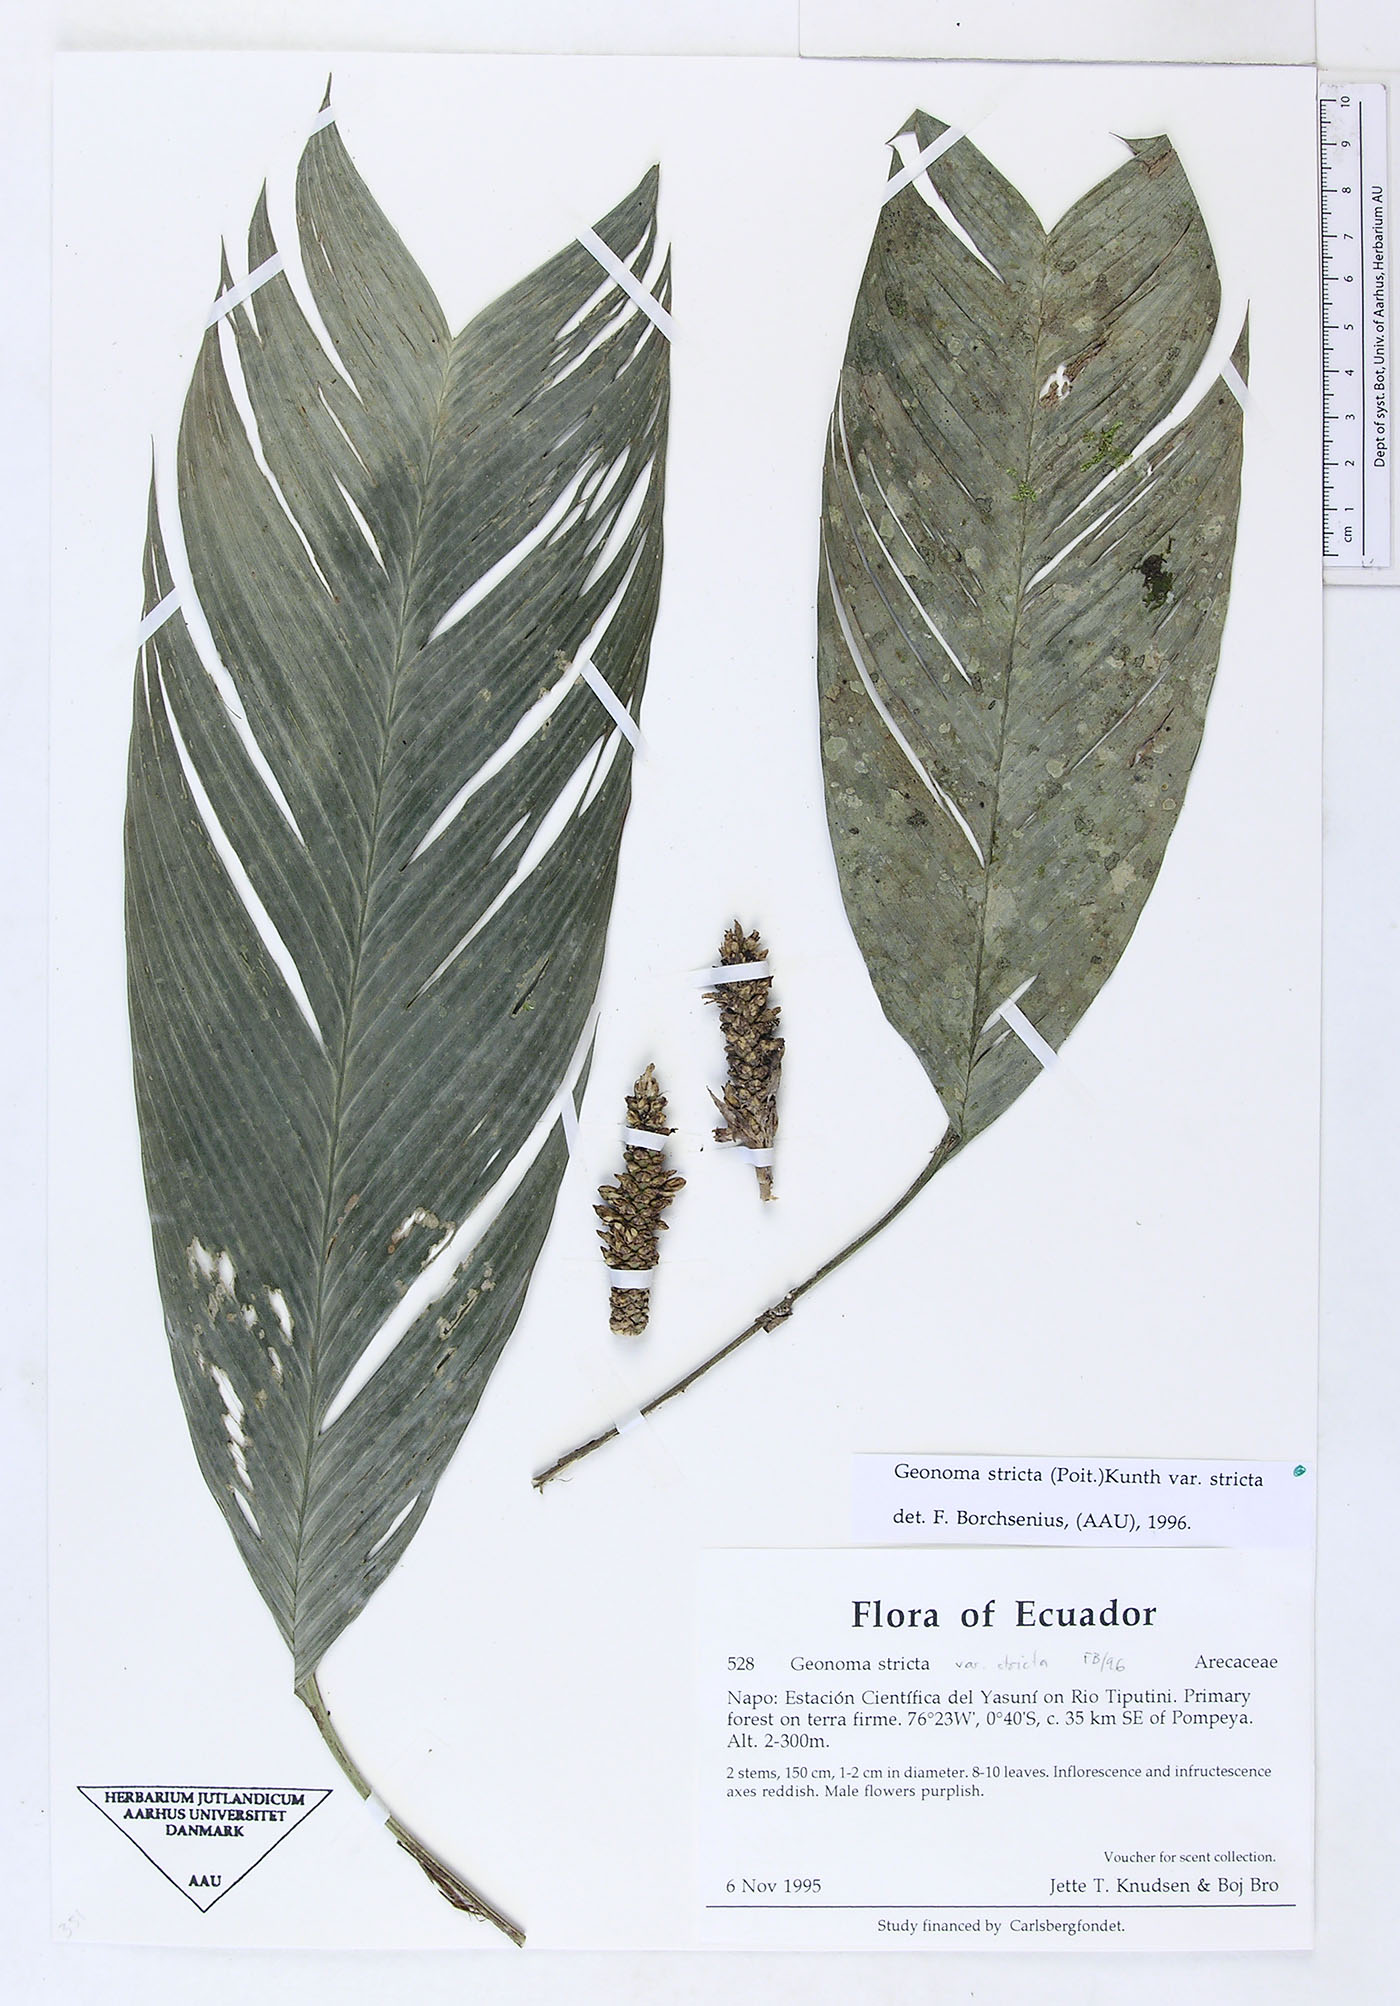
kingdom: Plantae
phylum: Tracheophyta
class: Liliopsida
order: Arecales
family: Arecaceae
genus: Geonoma
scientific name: Geonoma stricta
